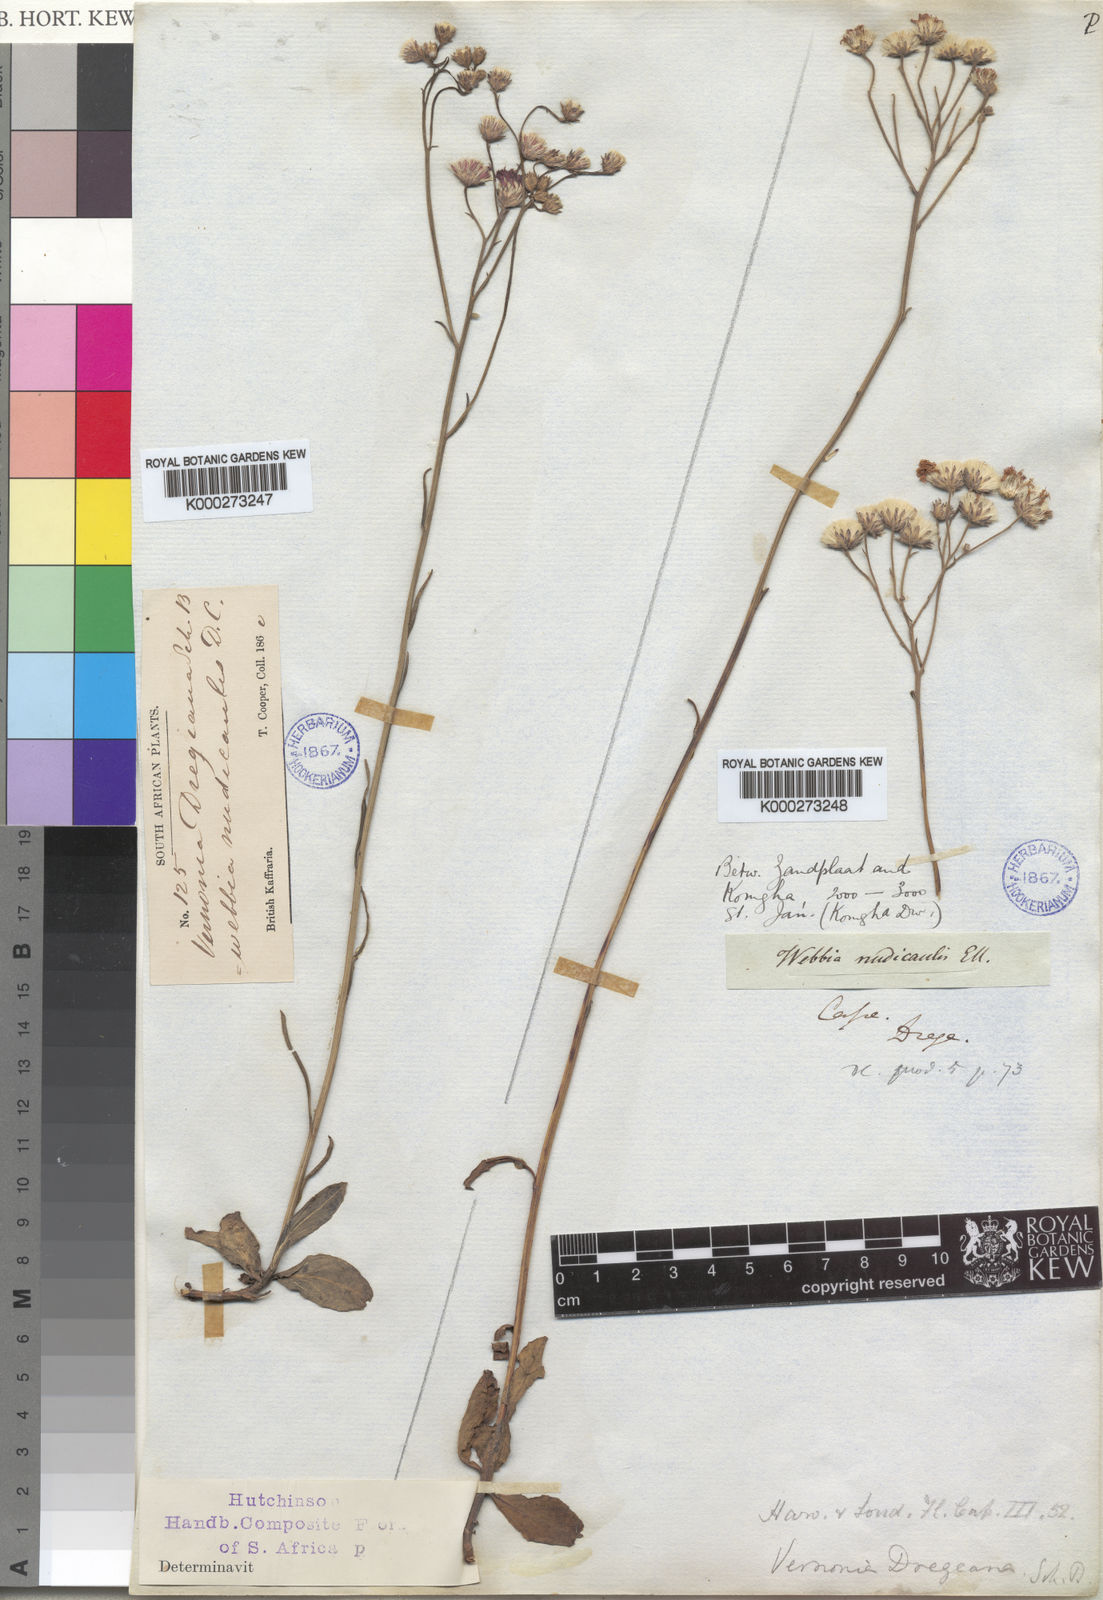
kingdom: Plantae
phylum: Tracheophyta
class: Magnoliopsida
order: Asterales
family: Asteraceae
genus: Vernonia
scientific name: Vernonia
